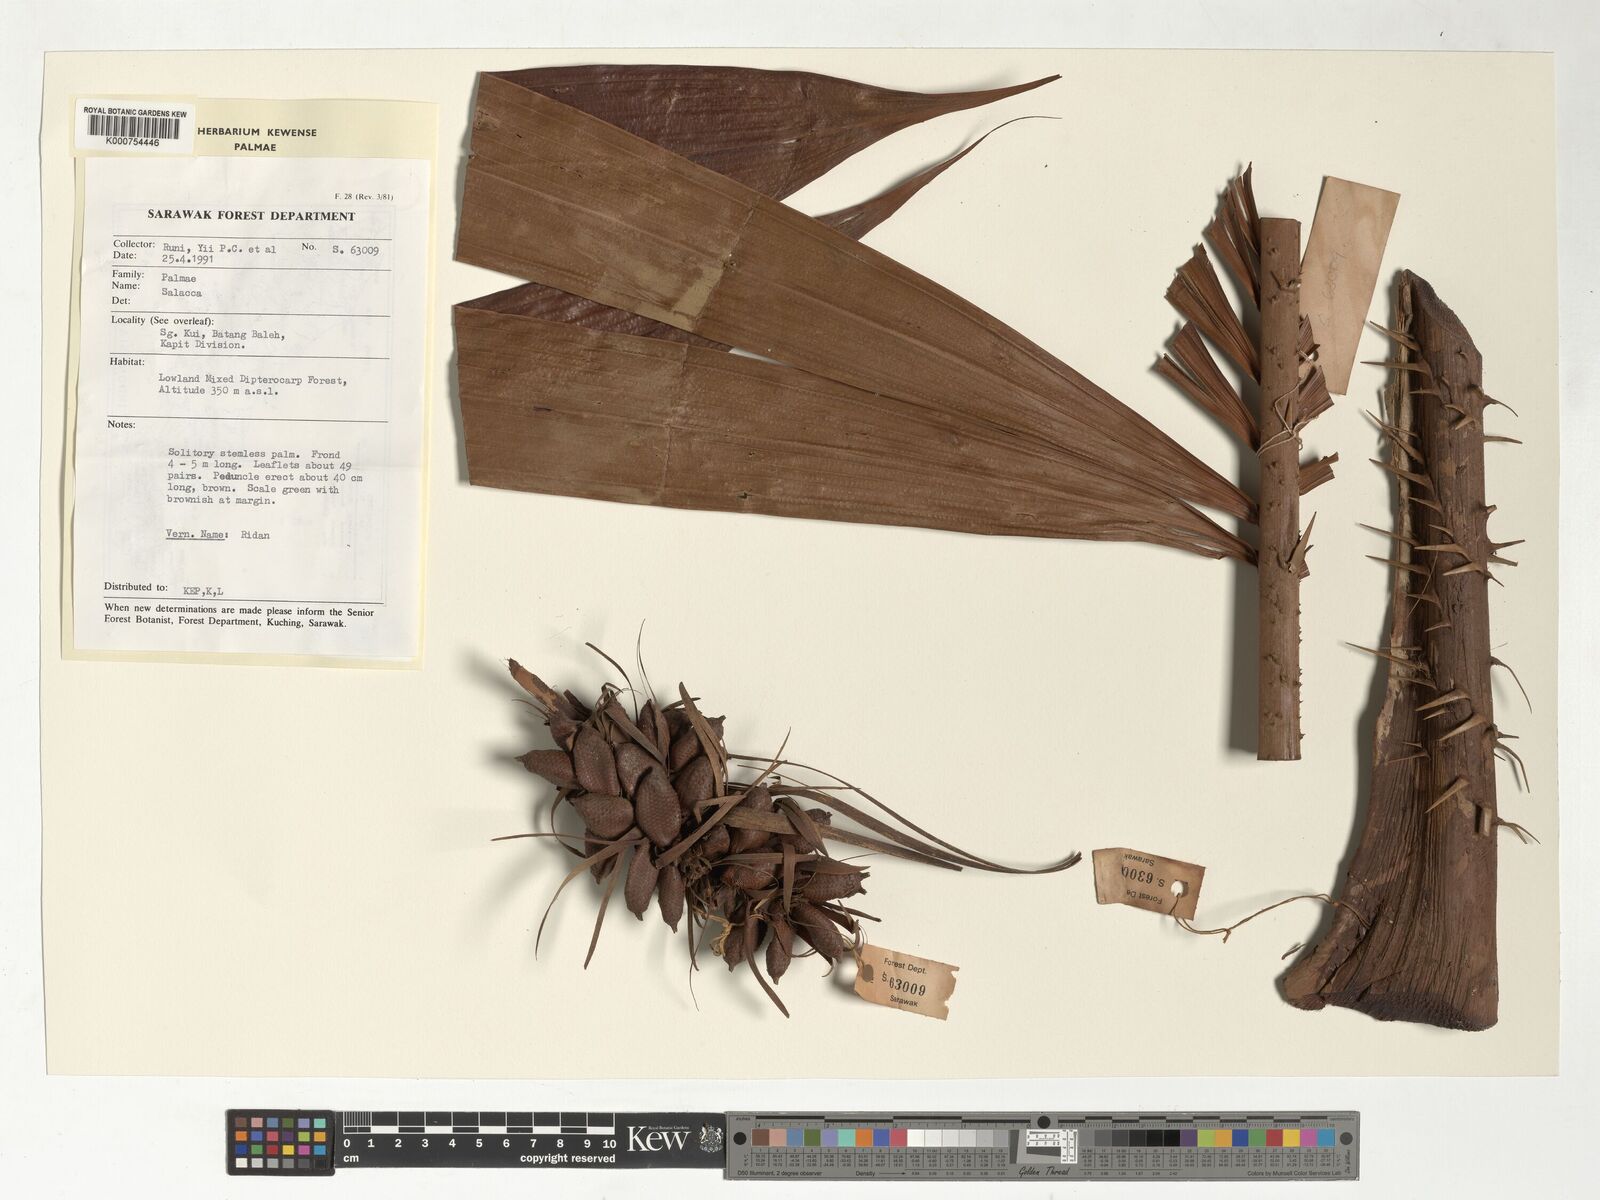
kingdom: Plantae
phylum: Tracheophyta
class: Liliopsida
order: Arecales
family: Arecaceae
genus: Salacca
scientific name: Salacca affinis
